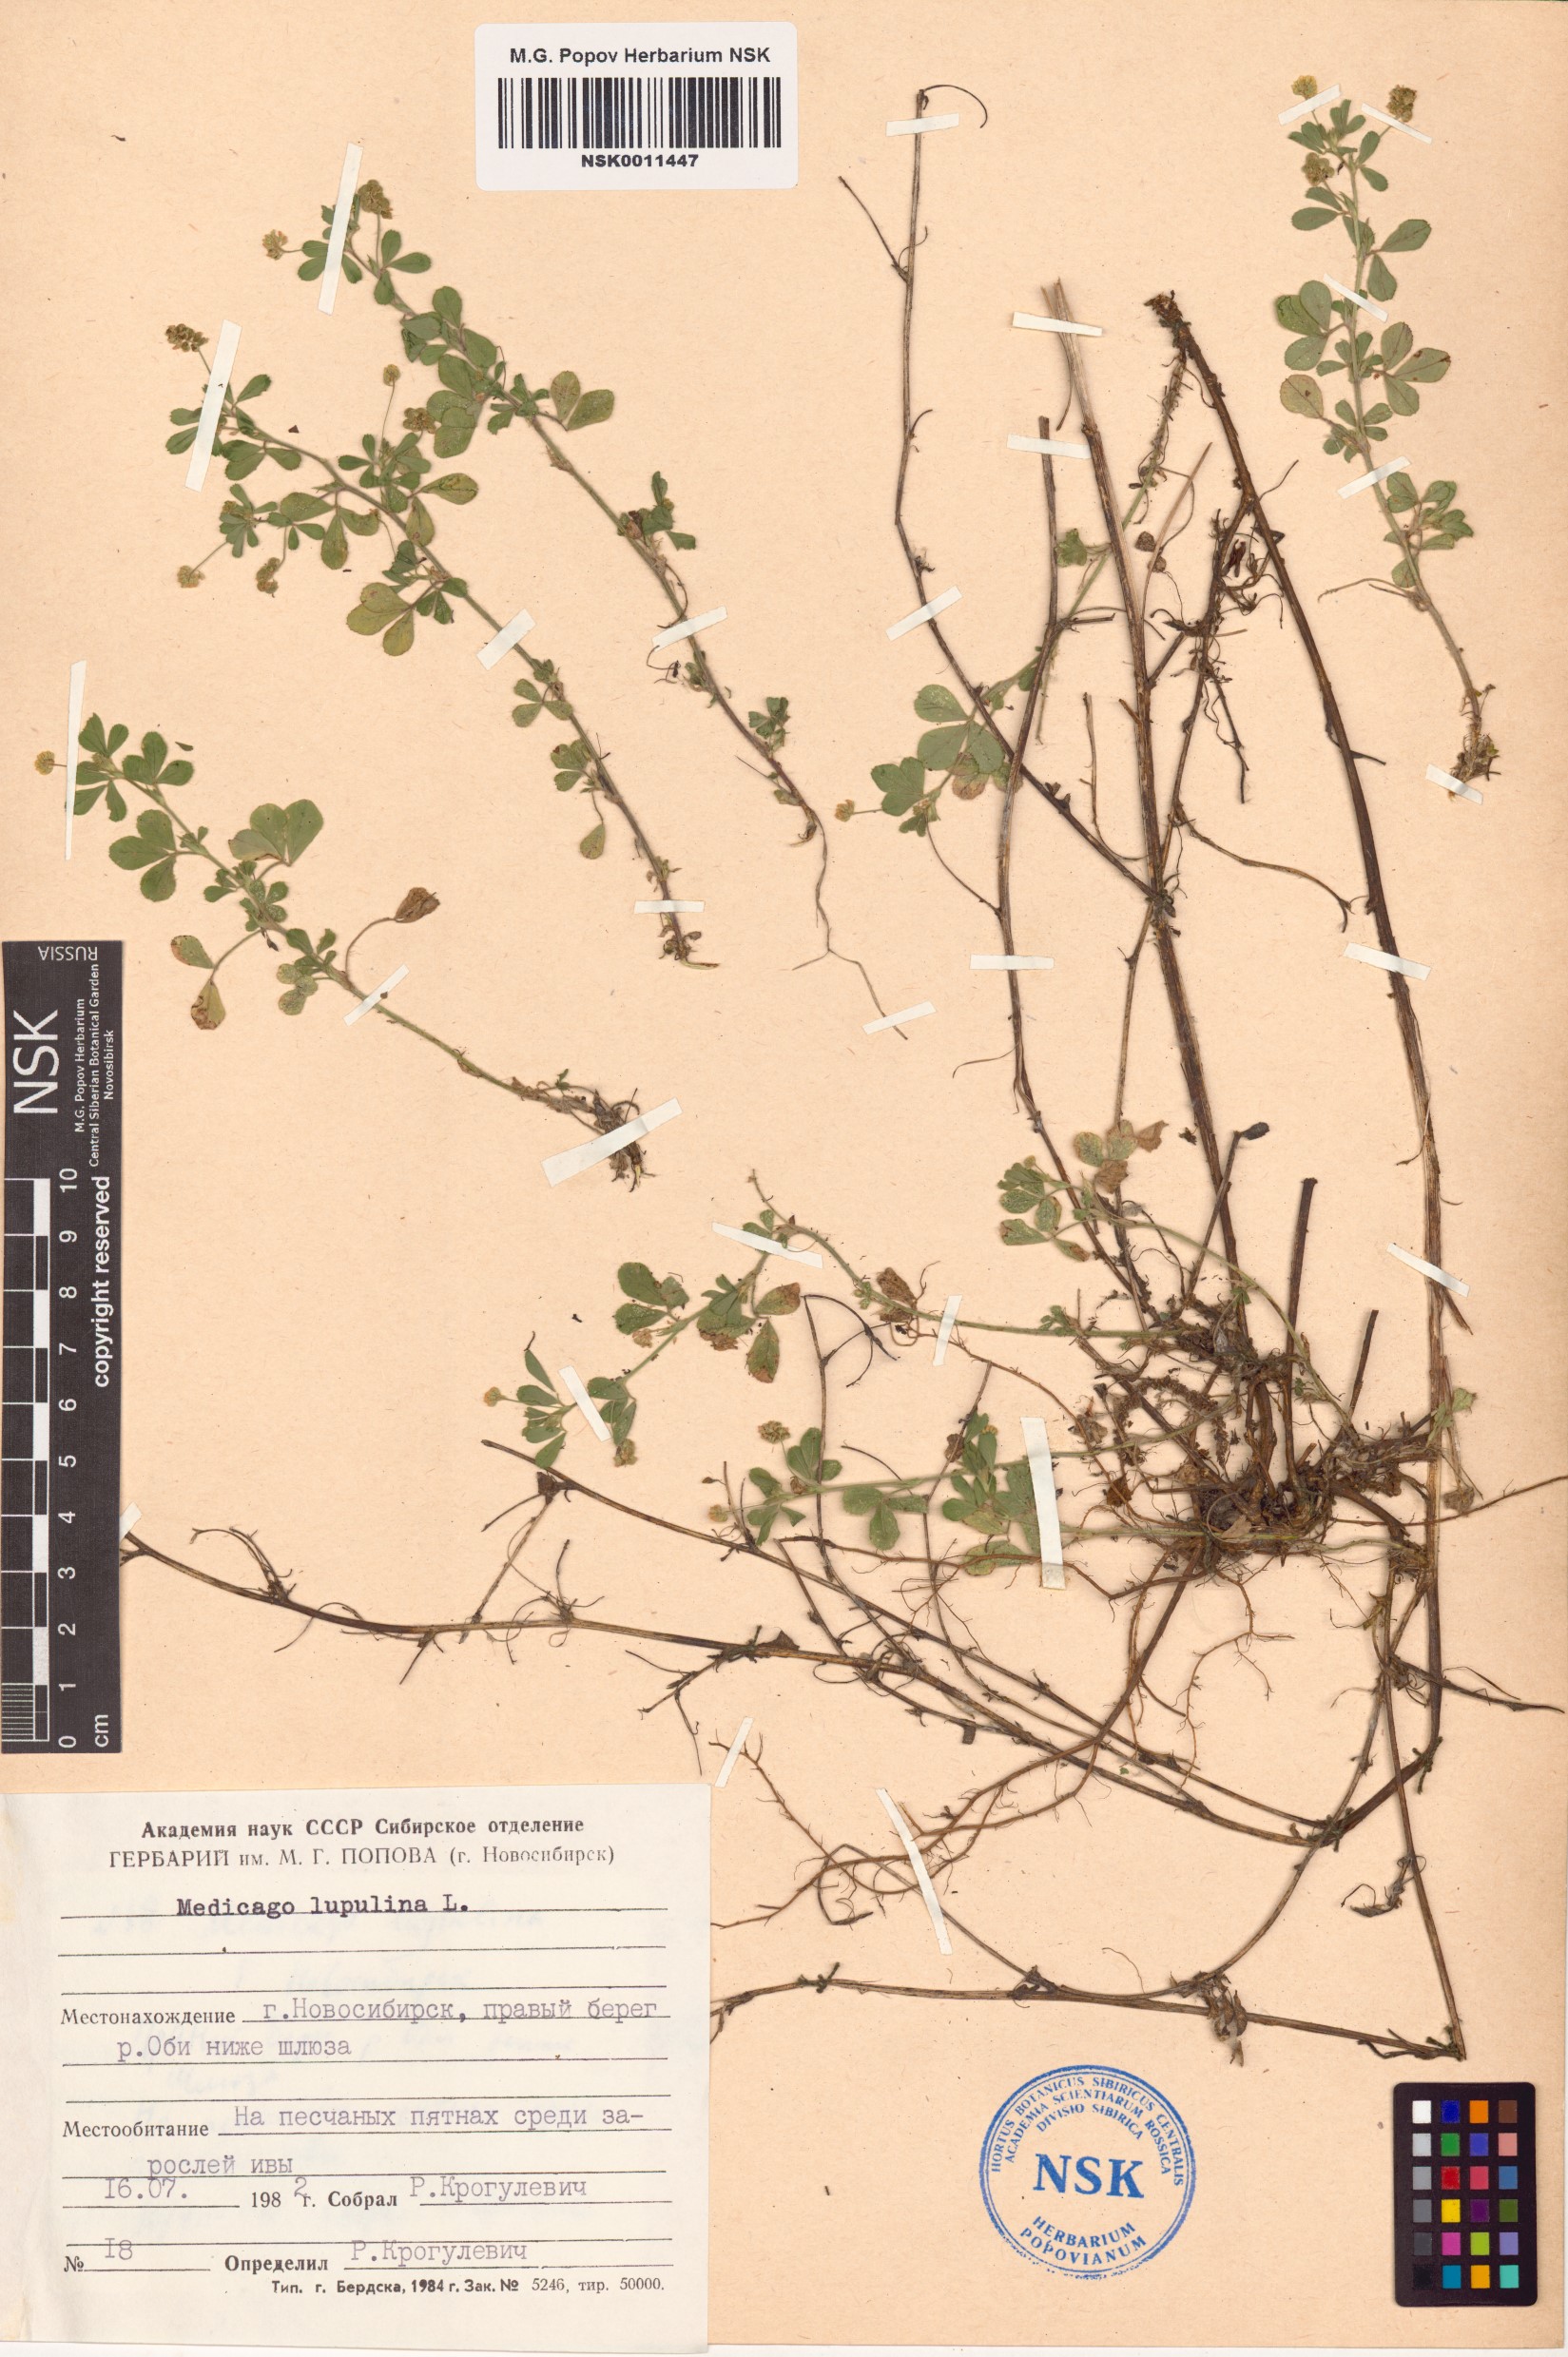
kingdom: Plantae
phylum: Tracheophyta
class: Magnoliopsida
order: Fabales
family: Fabaceae
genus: Medicago
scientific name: Medicago lupulina
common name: Black medick
